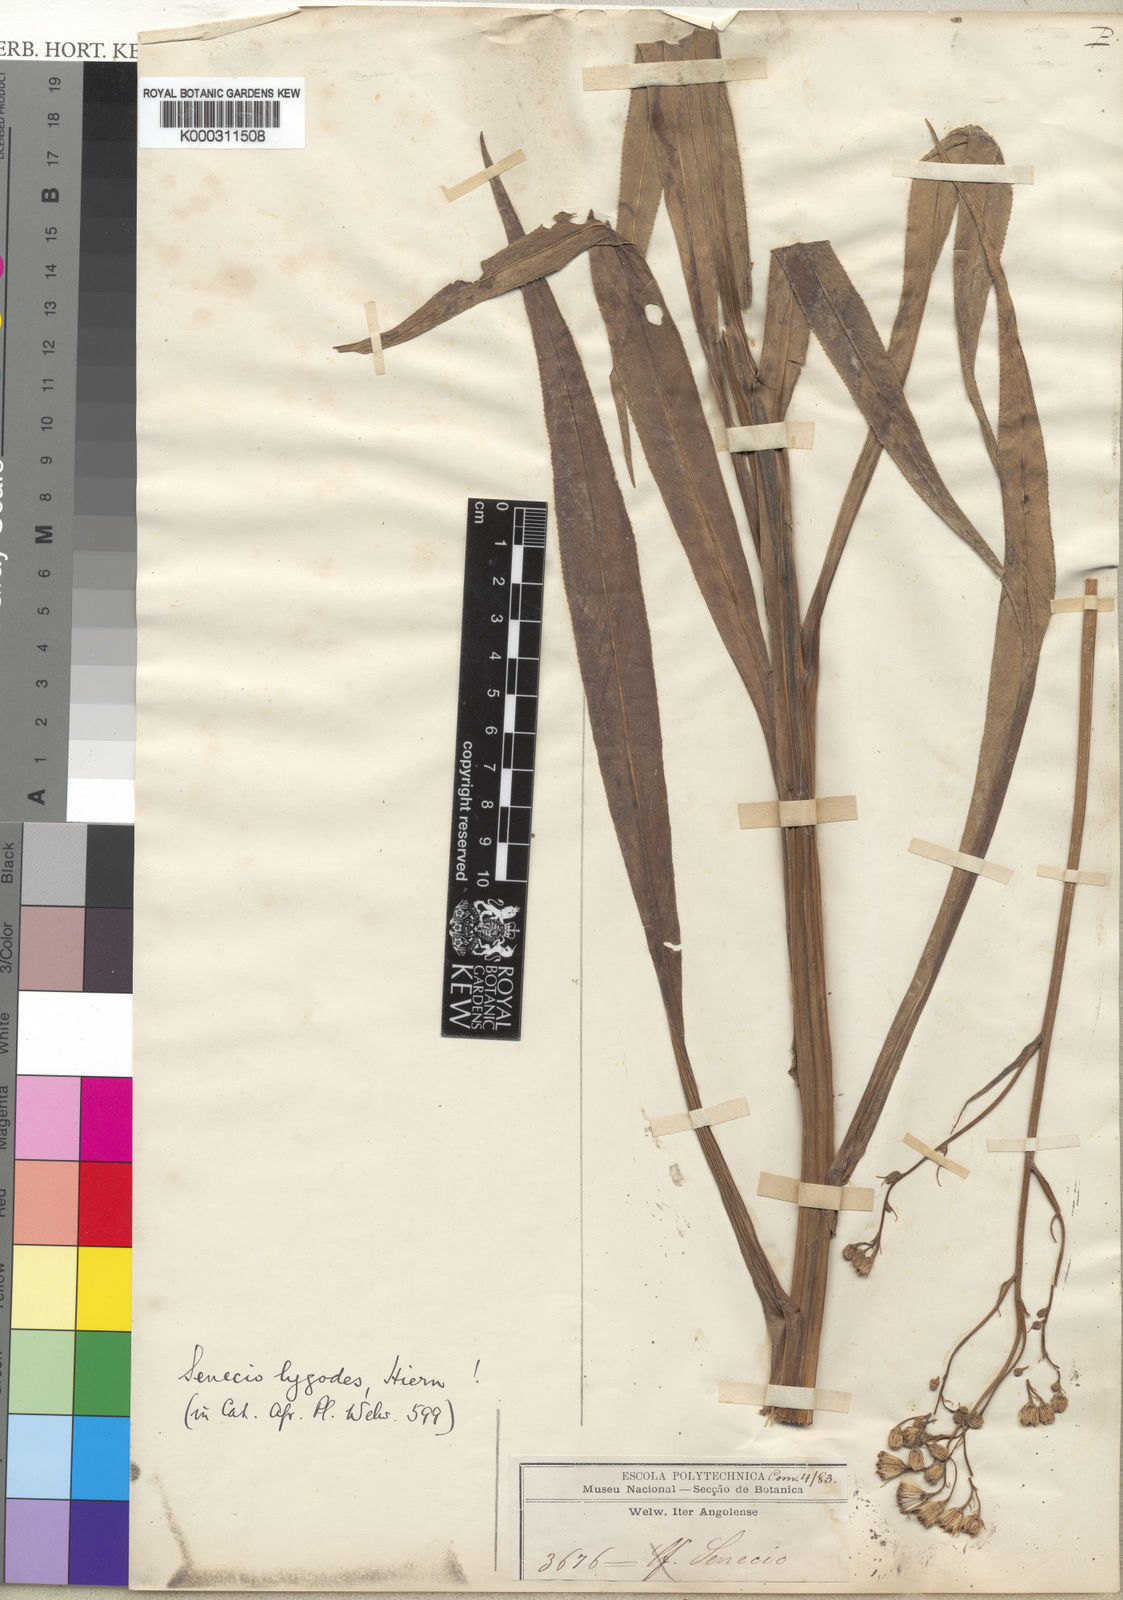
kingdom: Plantae
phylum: Tracheophyta
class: Magnoliopsida
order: Asterales
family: Asteraceae
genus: Senecio
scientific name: Senecio inornatus
